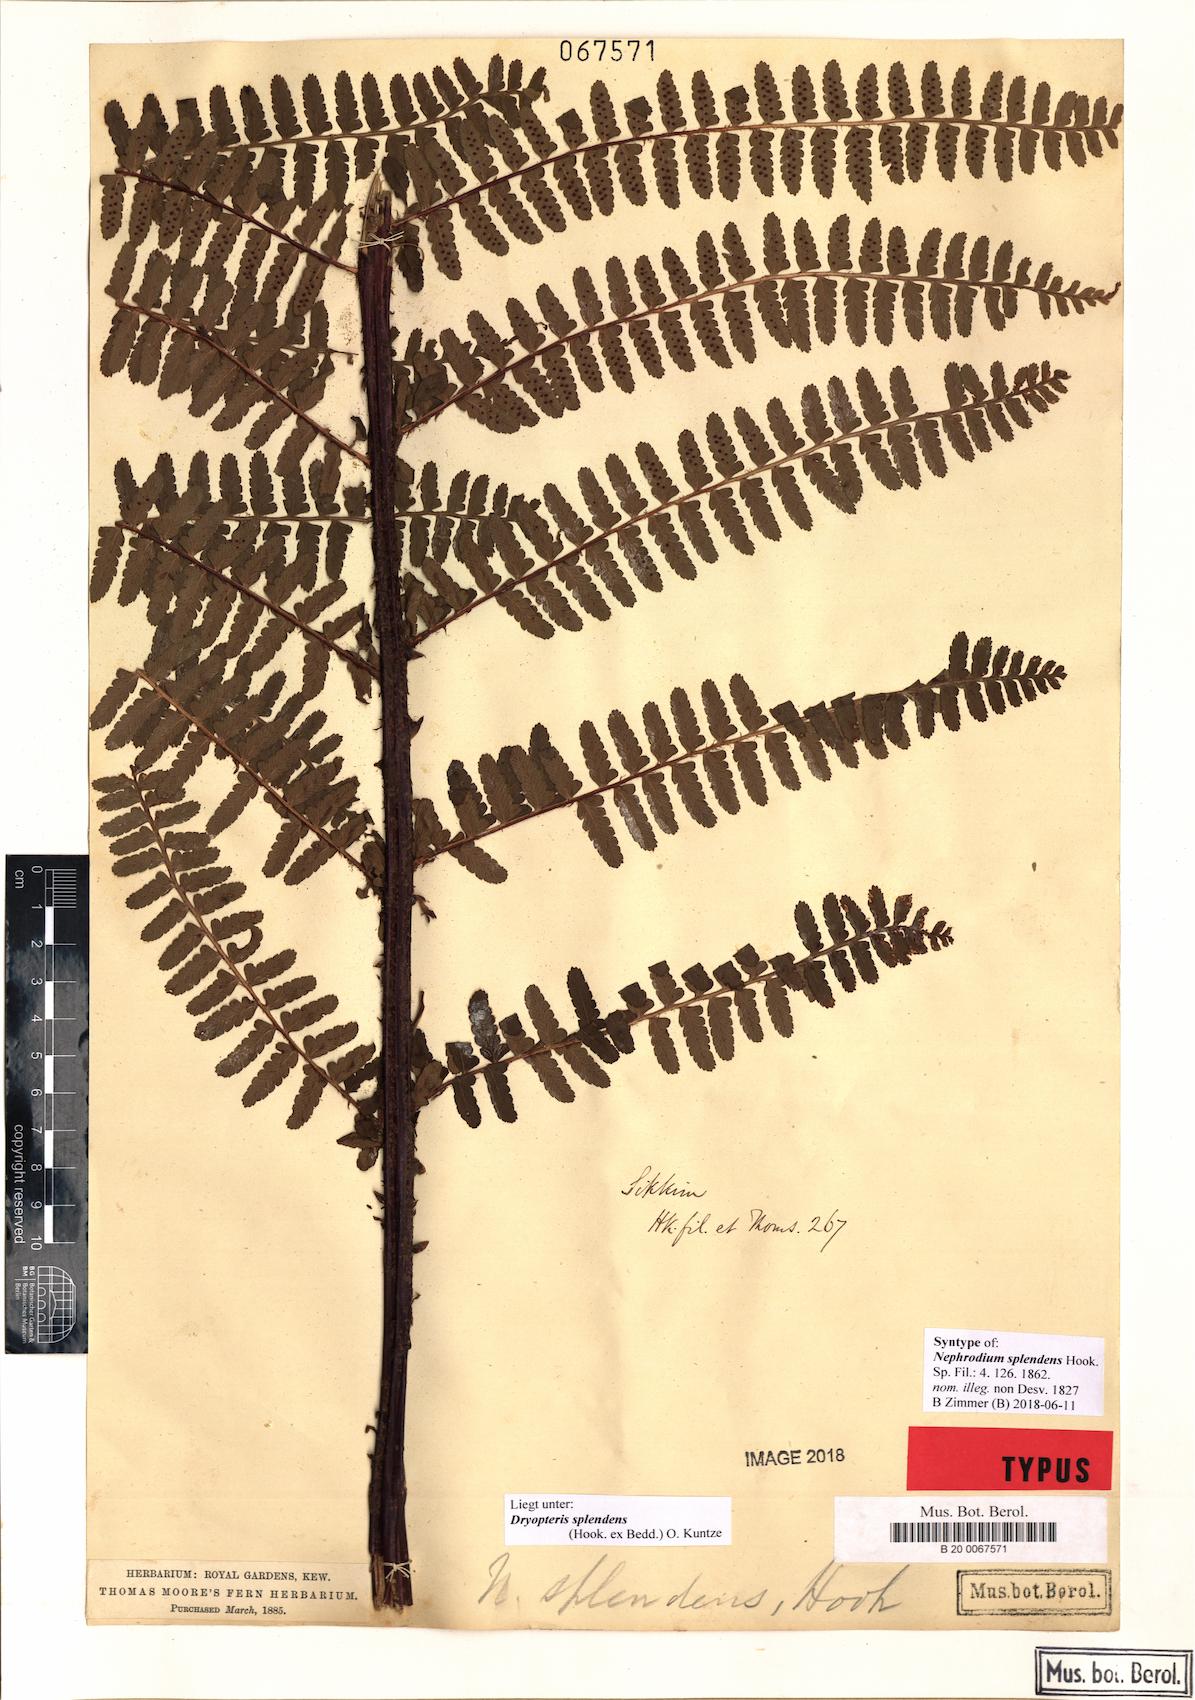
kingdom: Plantae
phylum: Tracheophyta
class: Polypodiopsida
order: Polypodiales
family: Dryopteridaceae
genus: Dryopteris
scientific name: Dryopteris splendens
